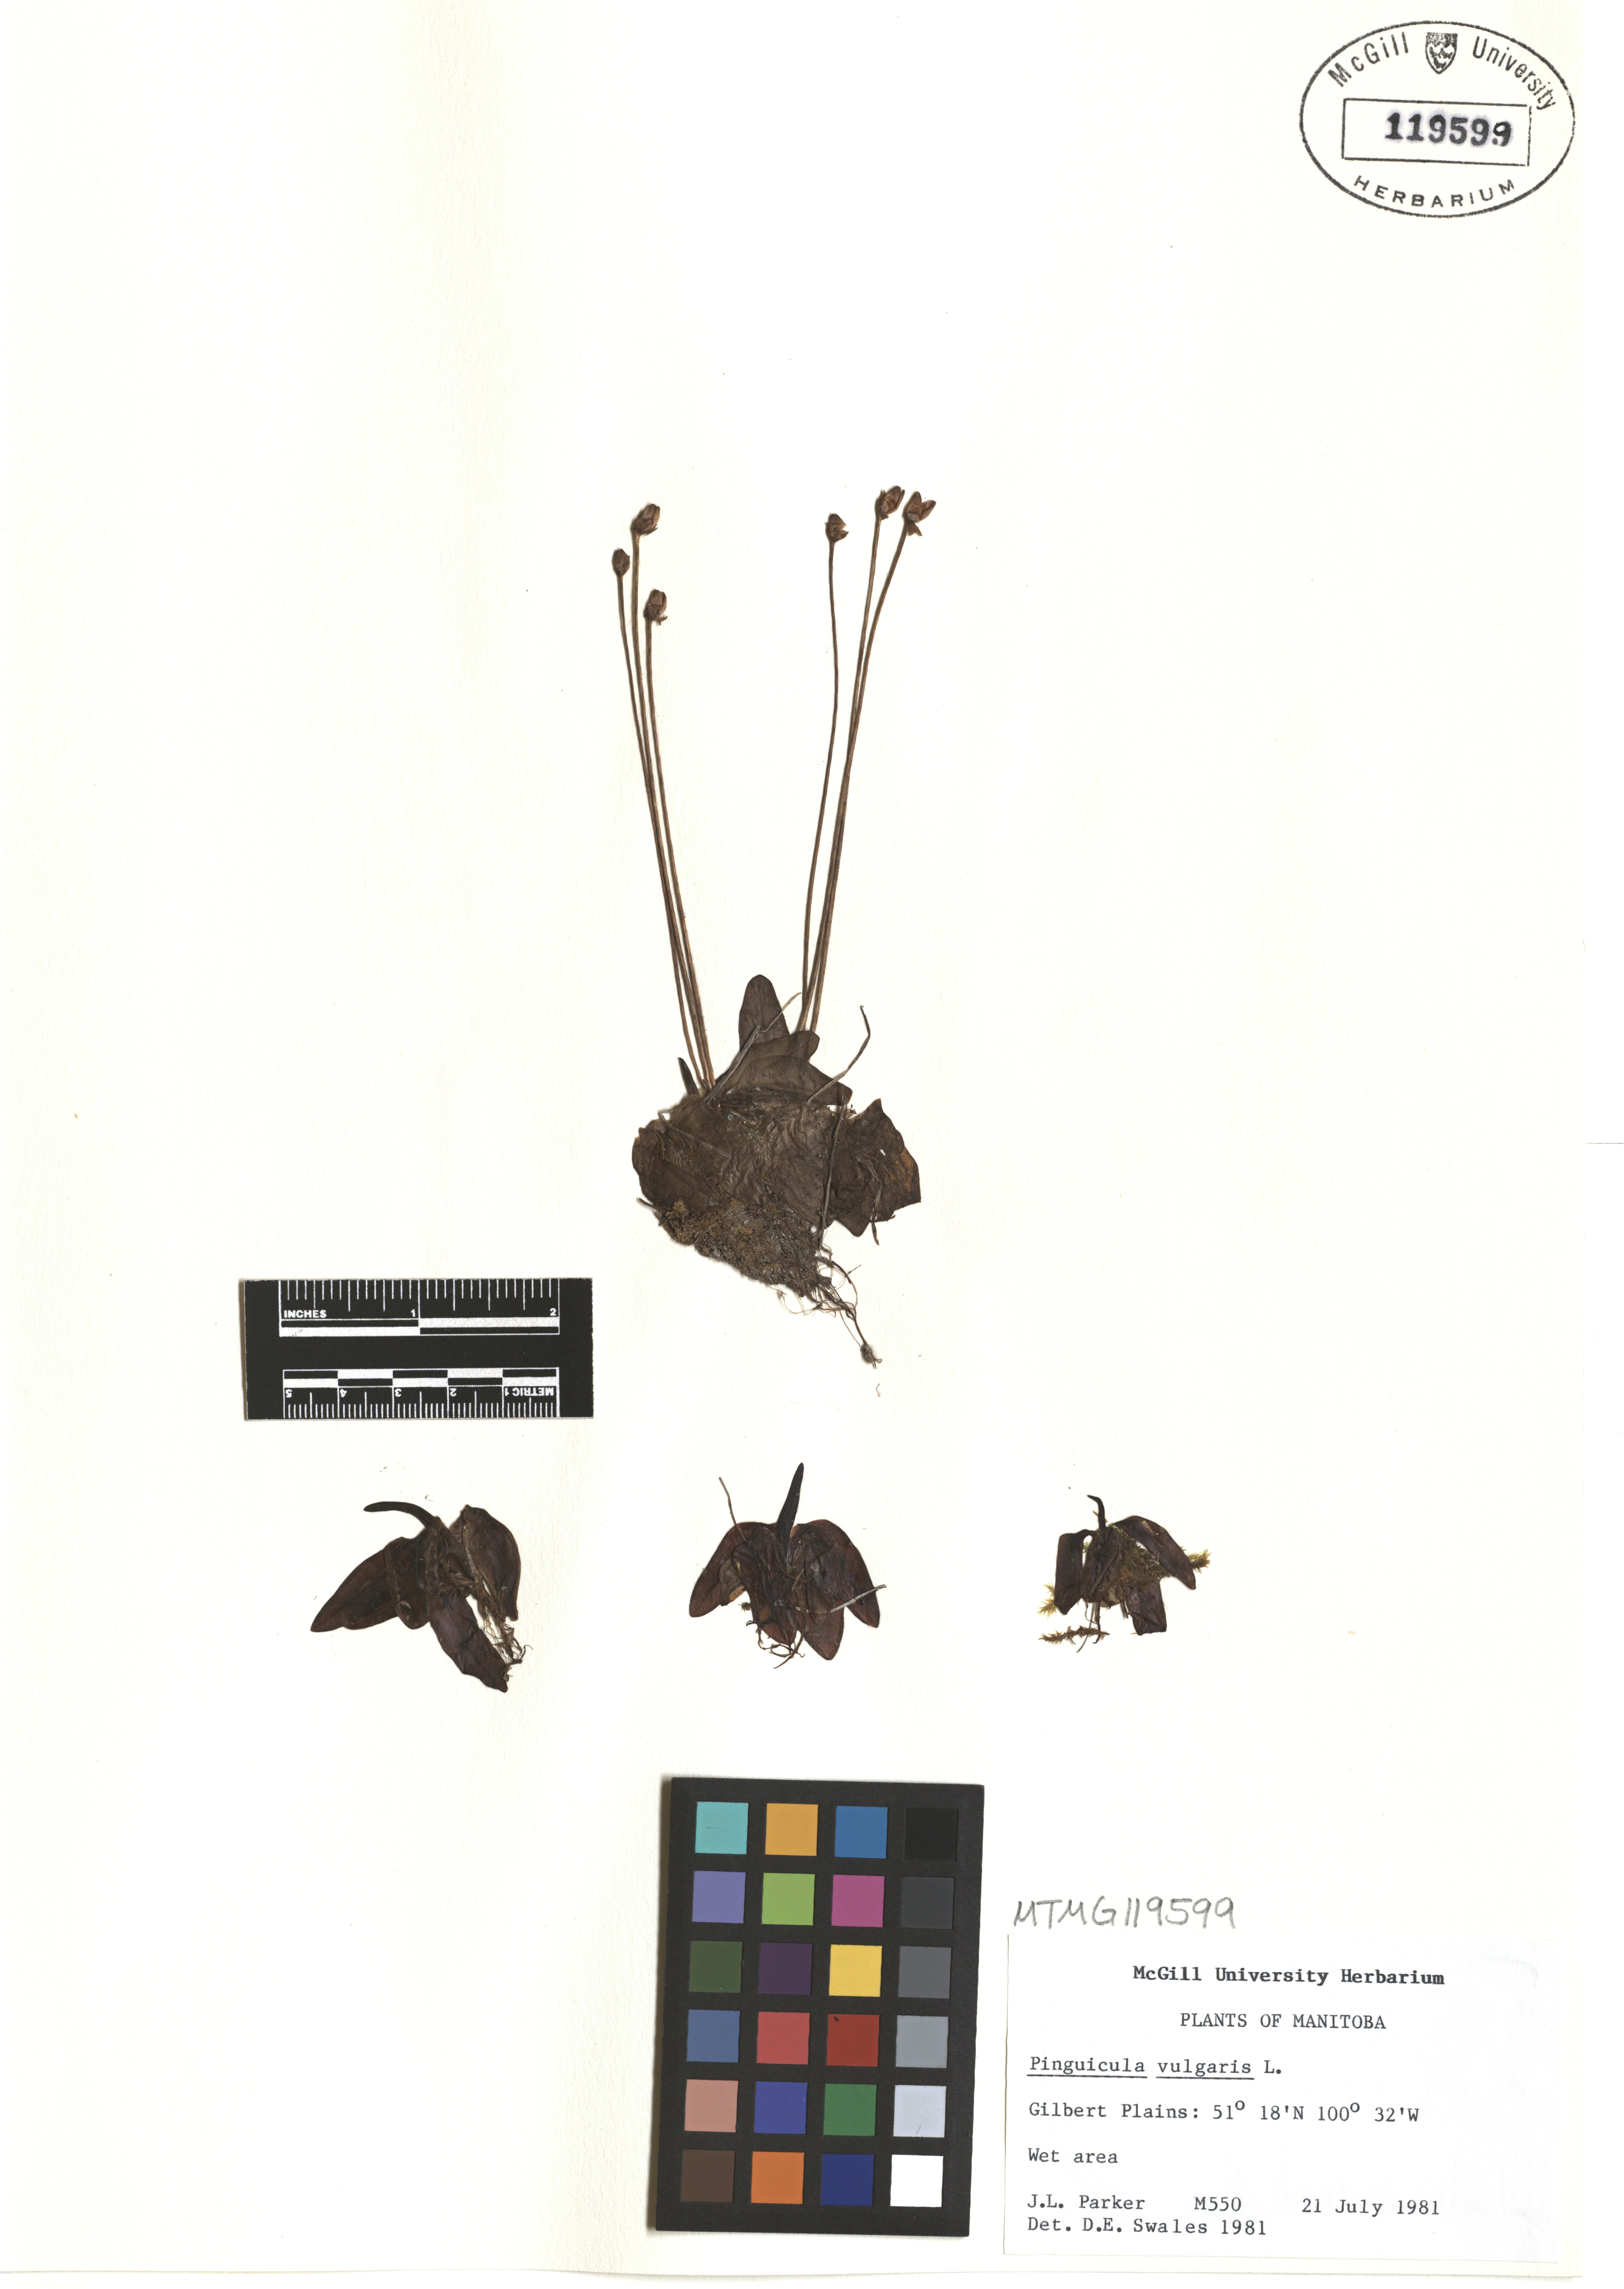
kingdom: Plantae
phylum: Tracheophyta
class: Magnoliopsida
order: Lamiales
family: Lentibulariaceae
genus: Pinguicula
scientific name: Pinguicula vulgaris
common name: Common butterwort
